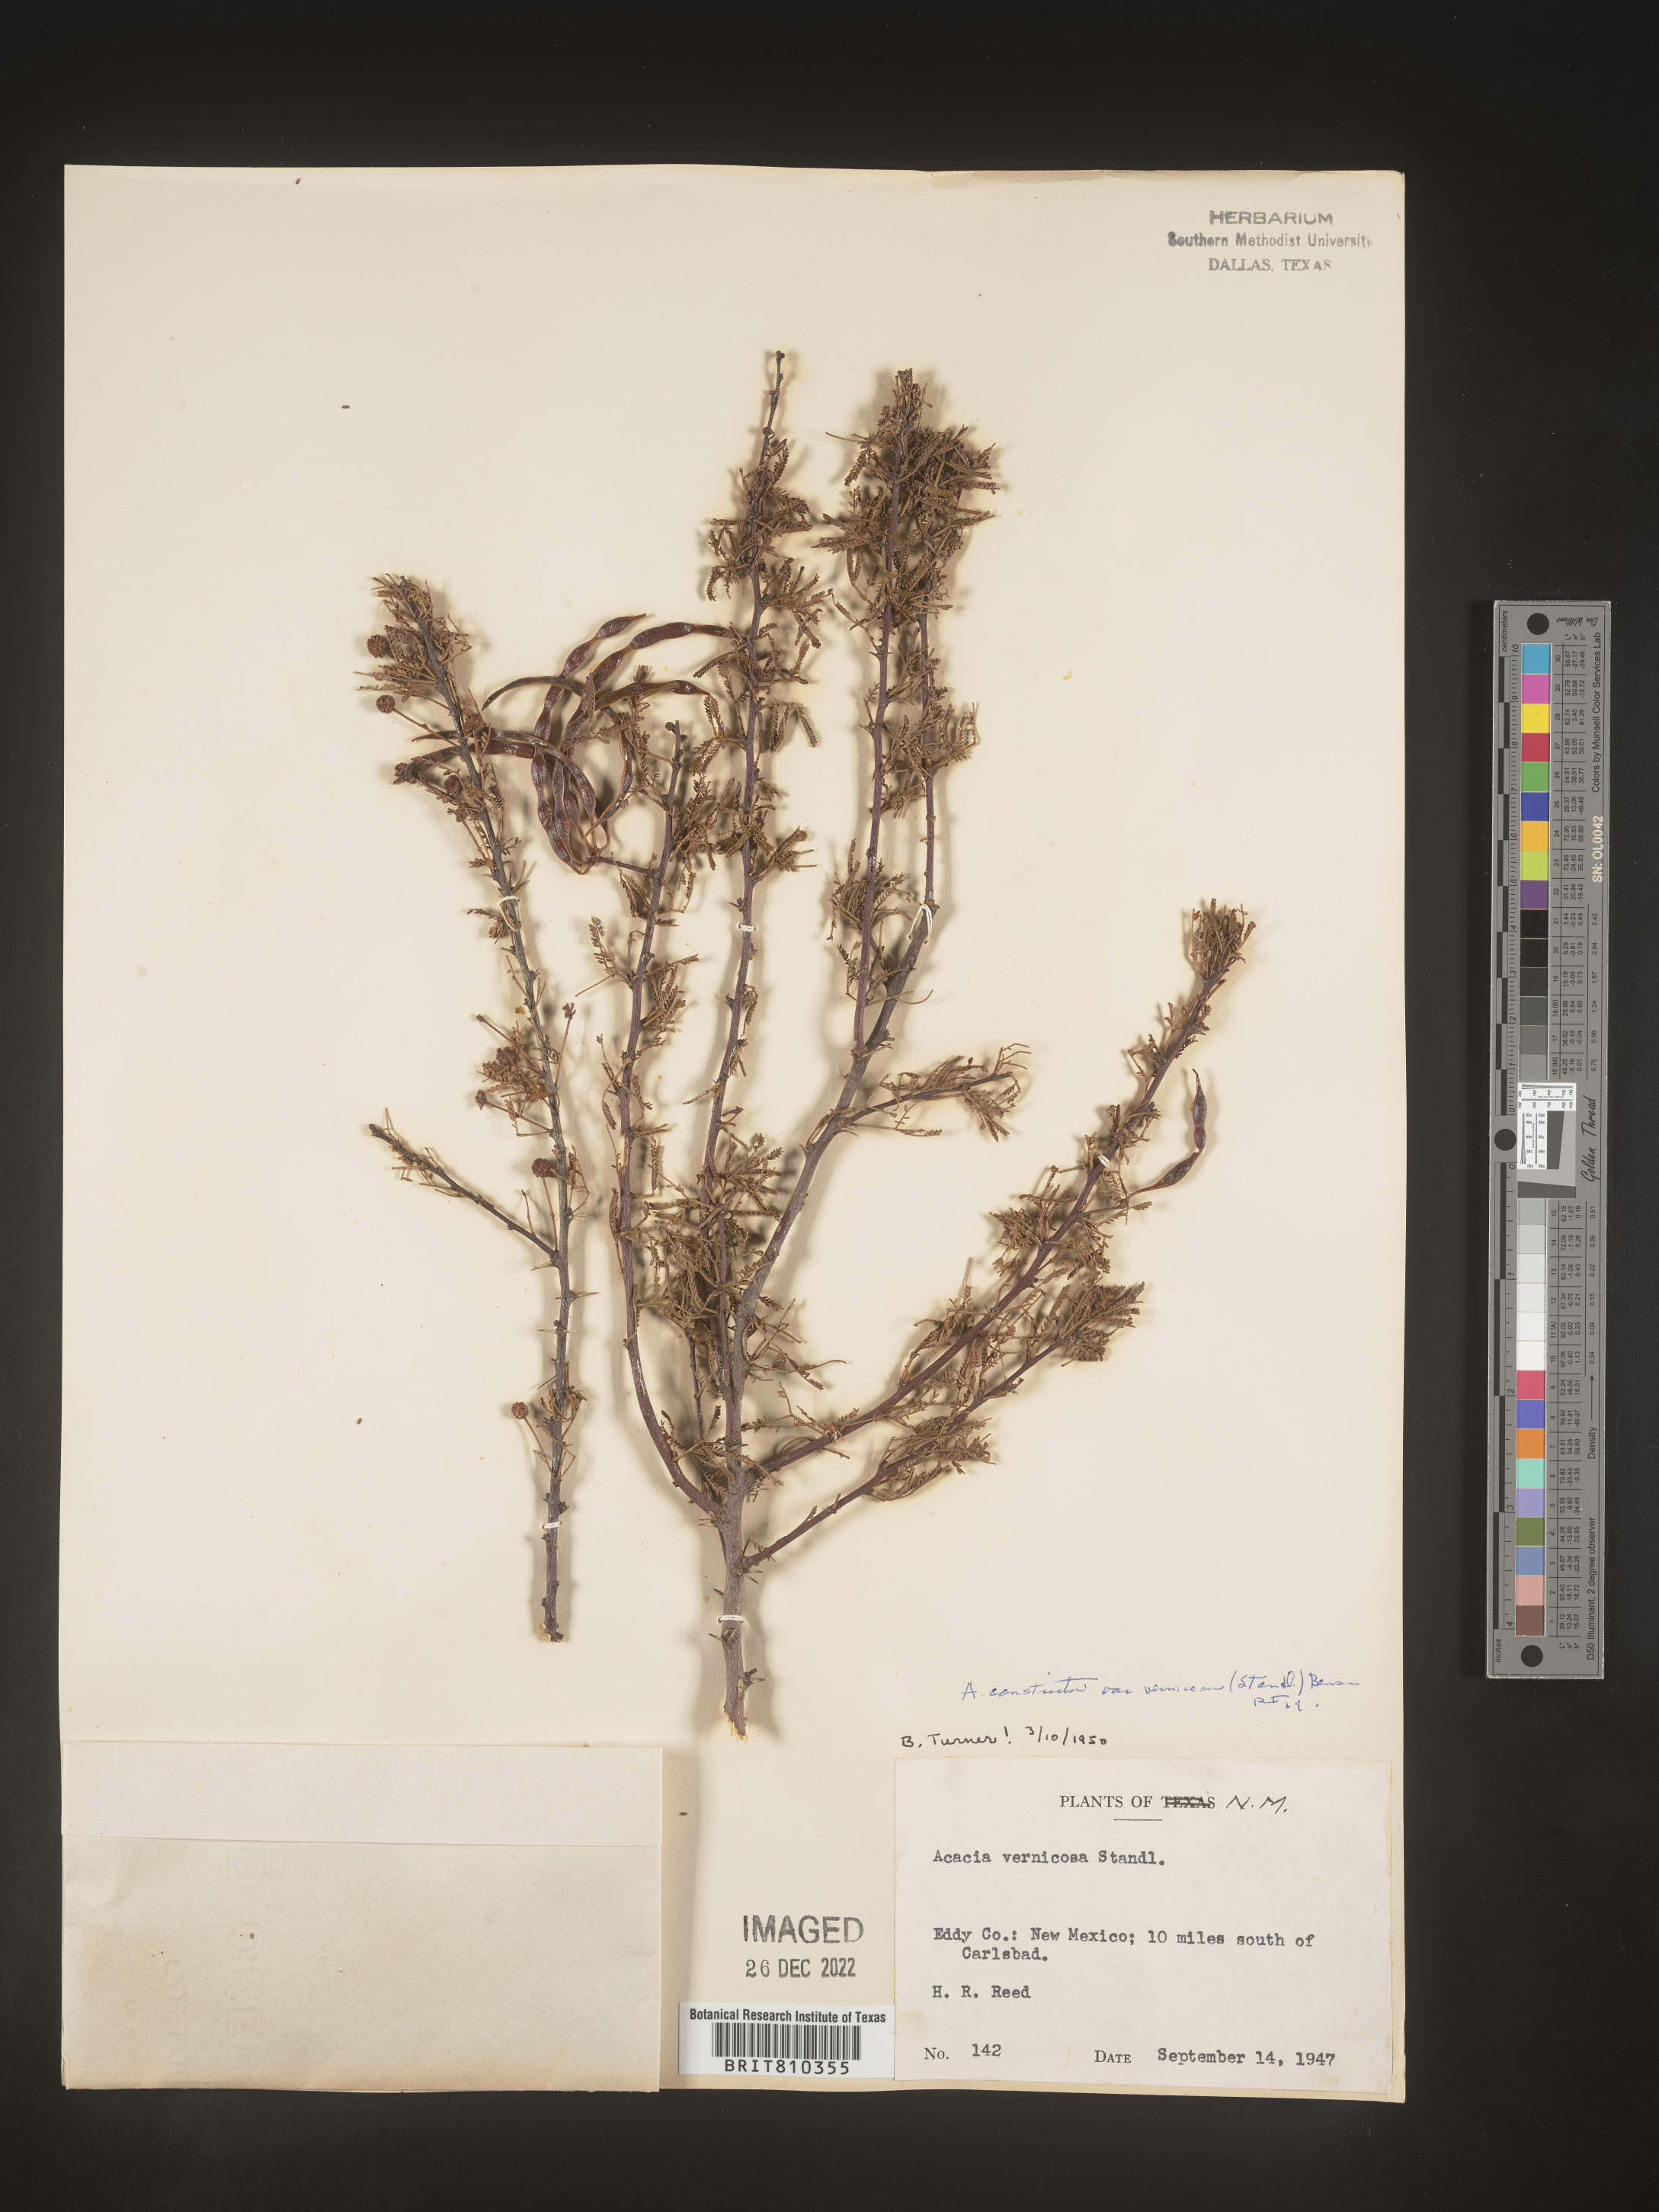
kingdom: Plantae
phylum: Tracheophyta
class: Magnoliopsida
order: Fabales
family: Fabaceae
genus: Acacia
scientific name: Acacia
